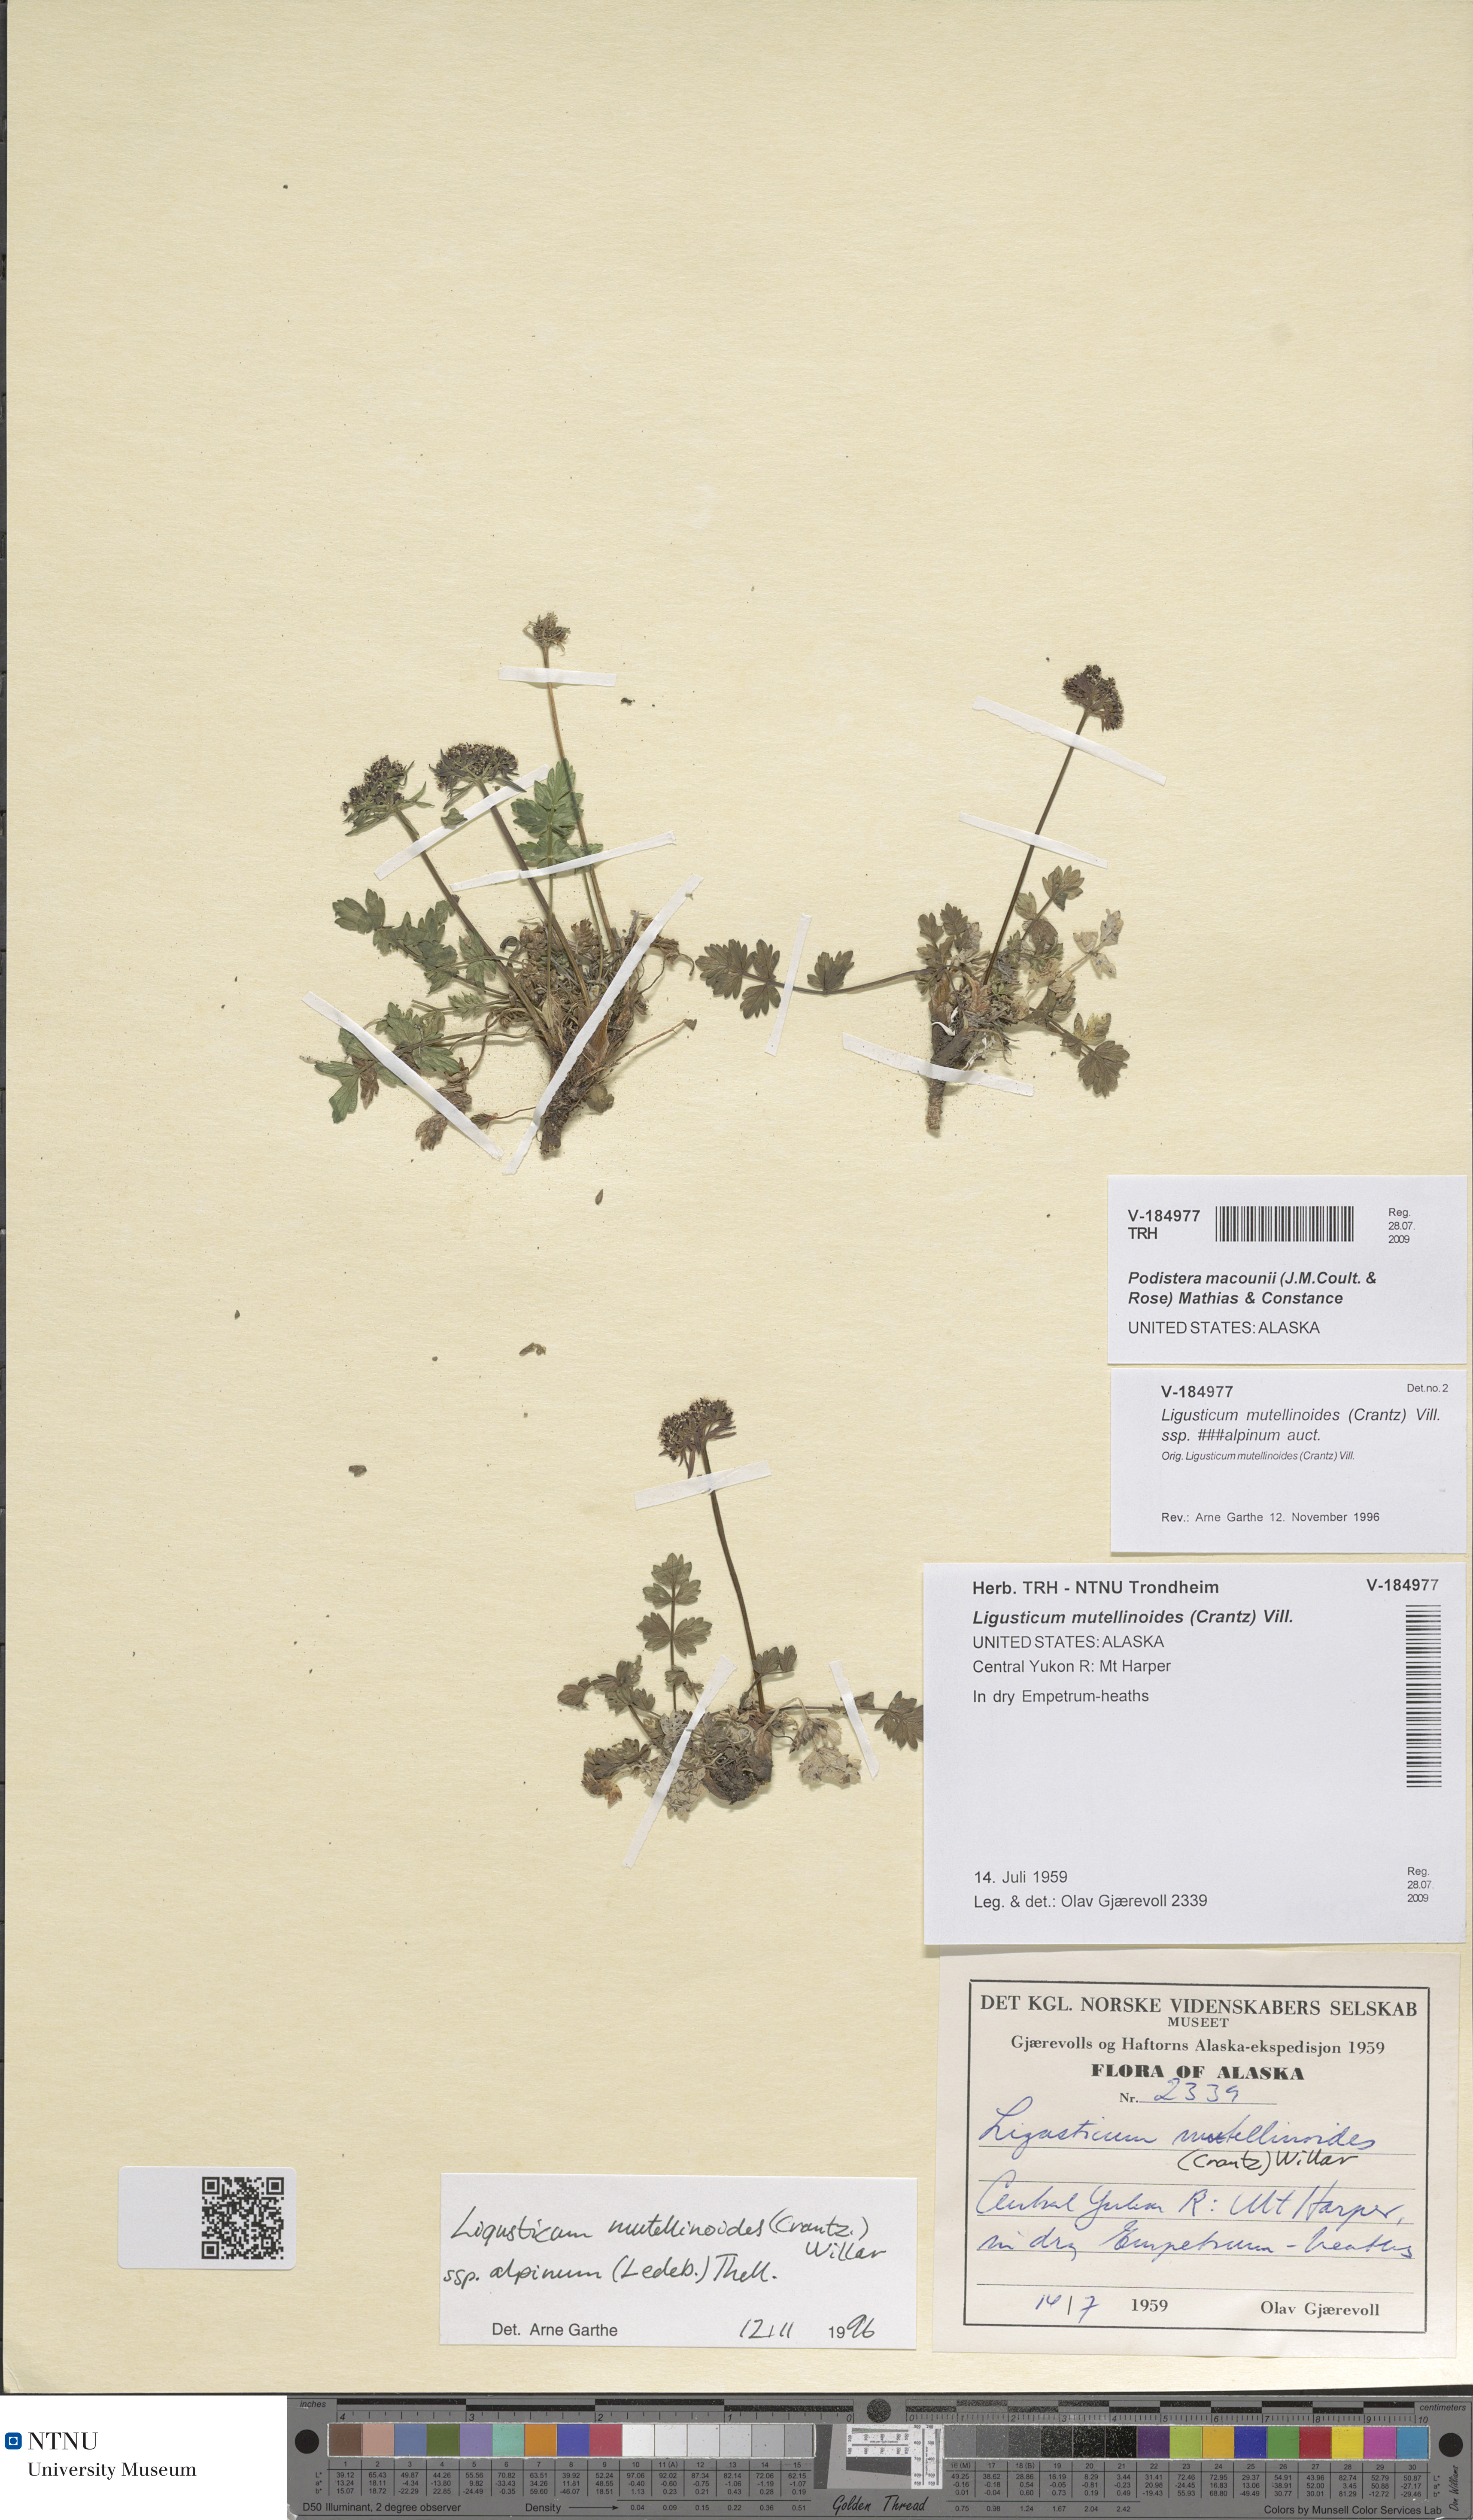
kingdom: Plantae
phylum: Tracheophyta
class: Magnoliopsida
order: Apiales
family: Apiaceae
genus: Orumbella
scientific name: Orumbella macounii
